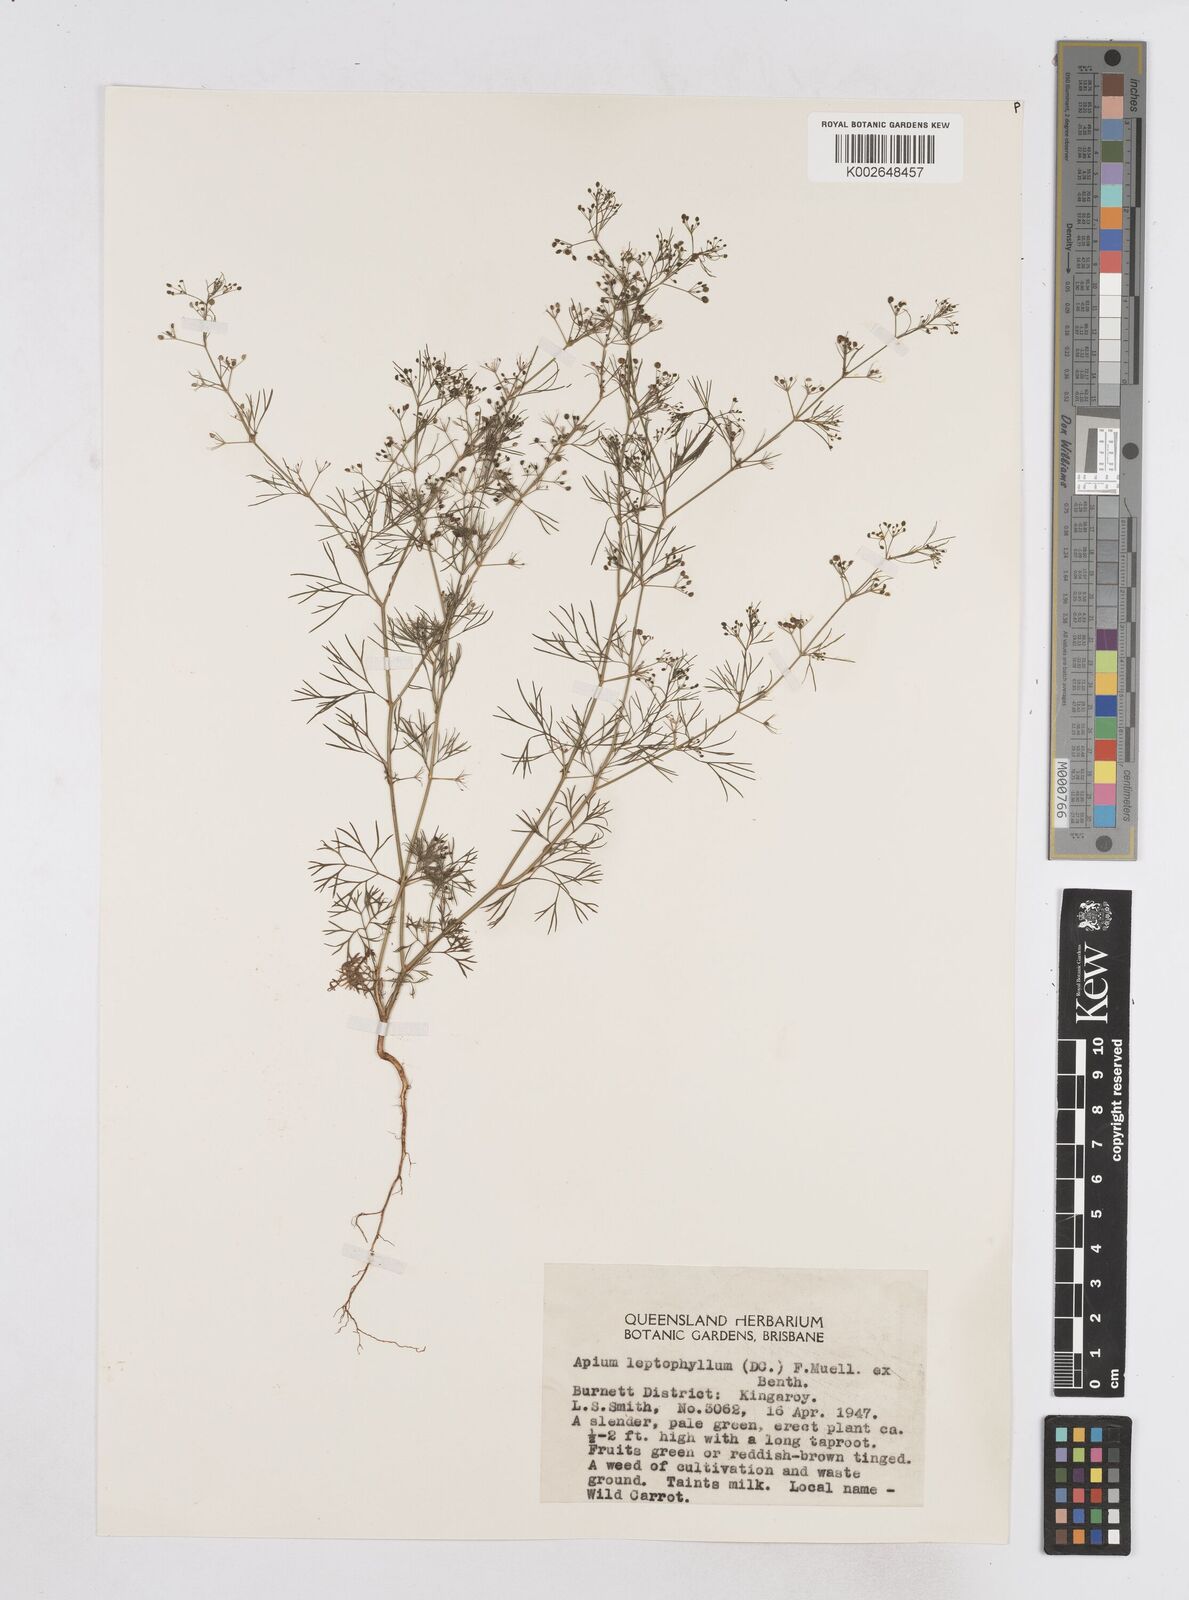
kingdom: Plantae
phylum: Tracheophyta
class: Magnoliopsida
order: Apiales
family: Apiaceae
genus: Cyclospermum
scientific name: Cyclospermum leptophyllum
